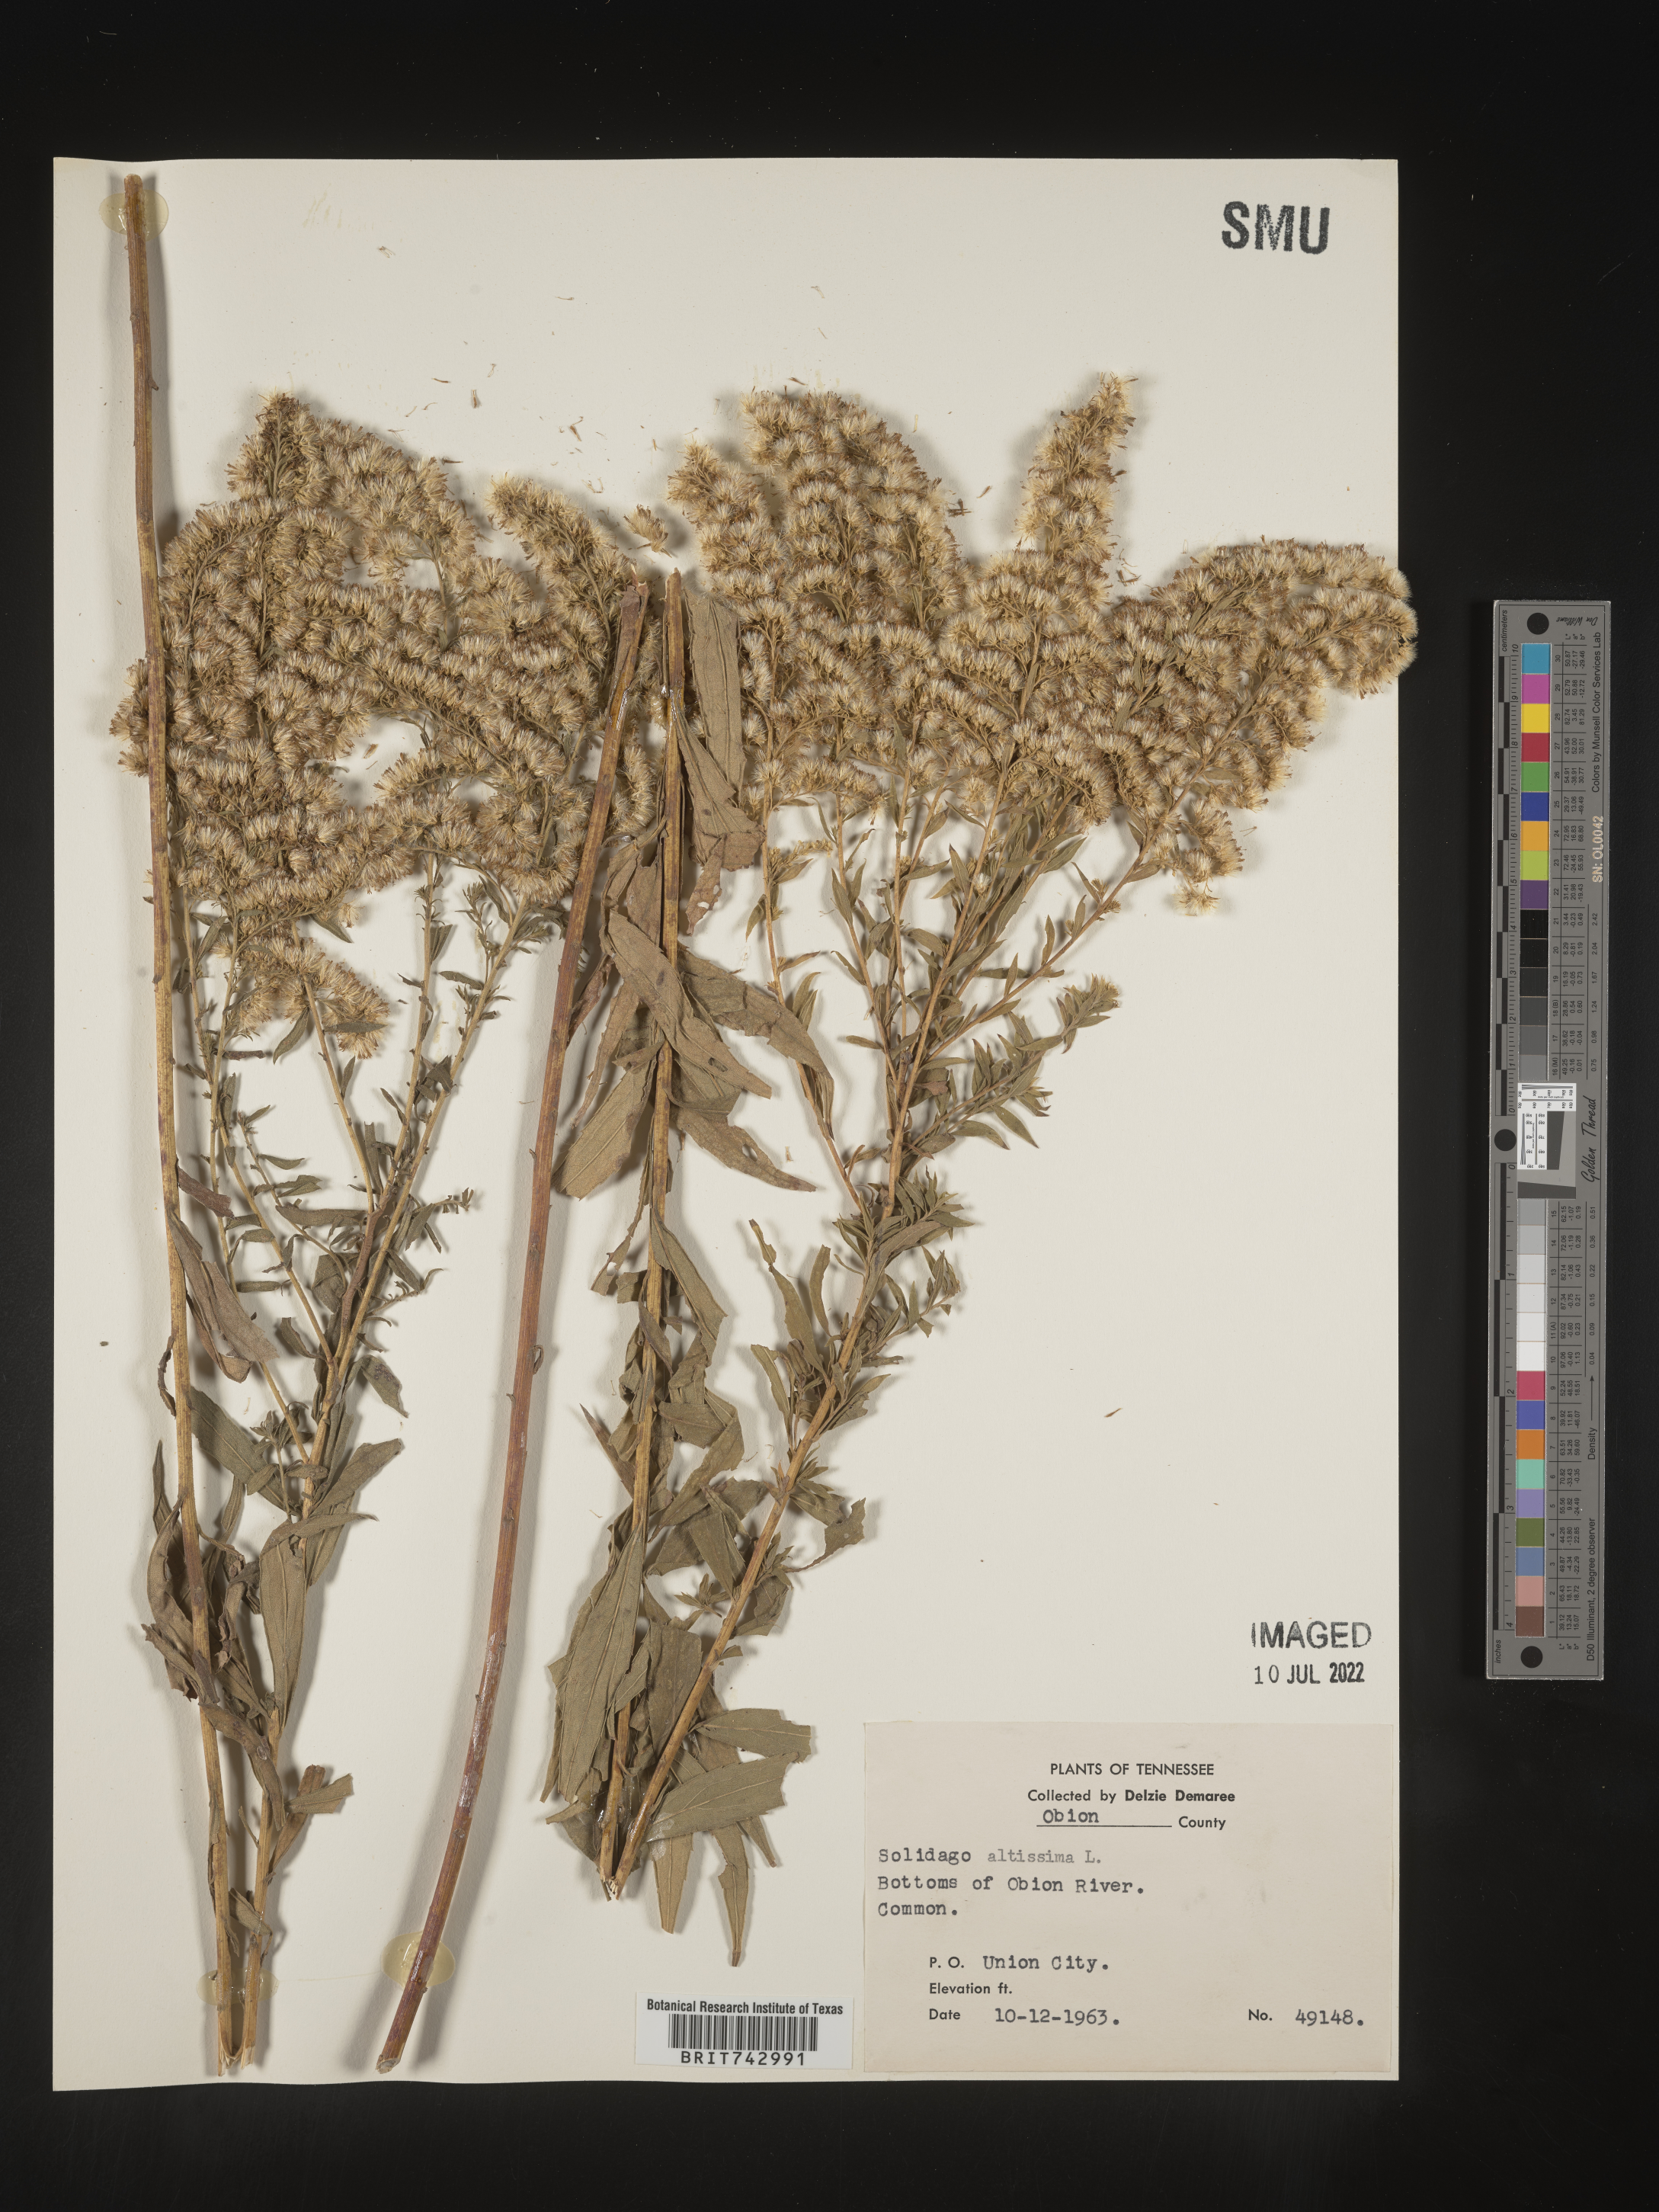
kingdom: Plantae
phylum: Tracheophyta
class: Magnoliopsida
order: Asterales
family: Asteraceae
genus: Solidago
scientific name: Solidago altissima
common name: Late goldenrod
